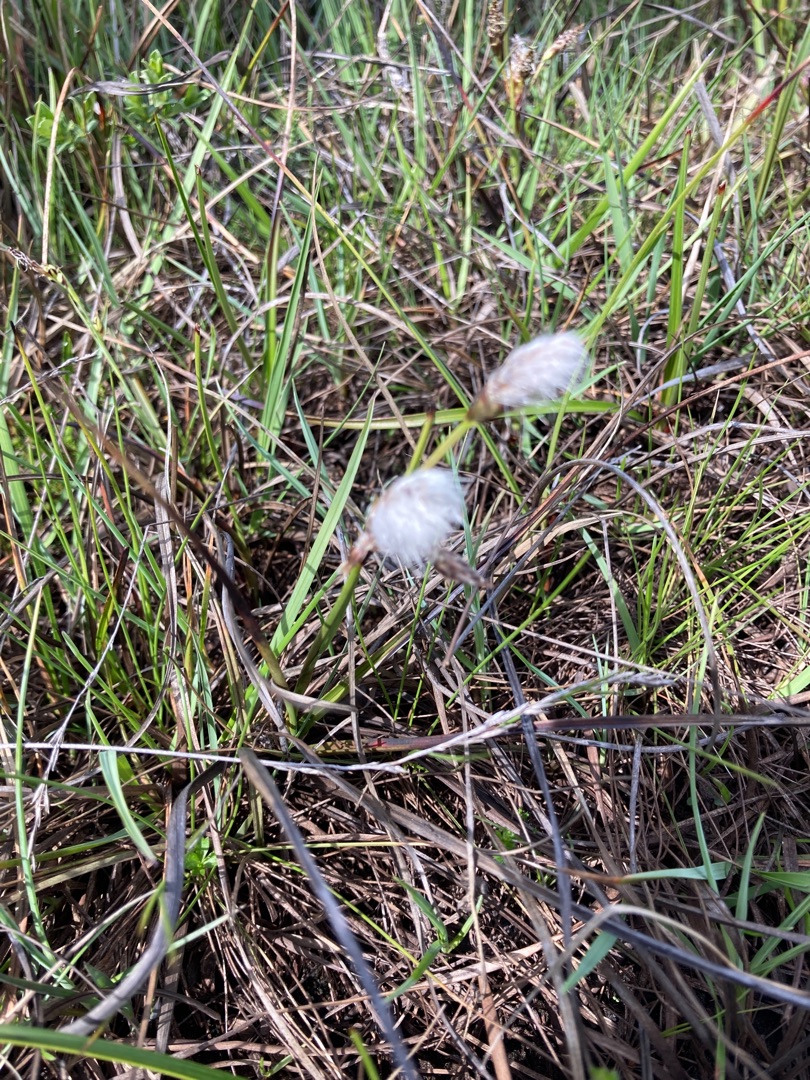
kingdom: Plantae
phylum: Tracheophyta
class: Liliopsida
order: Poales
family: Cyperaceae
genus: Eriophorum
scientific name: Eriophorum angustifolium
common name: Smalbladet kæruld
